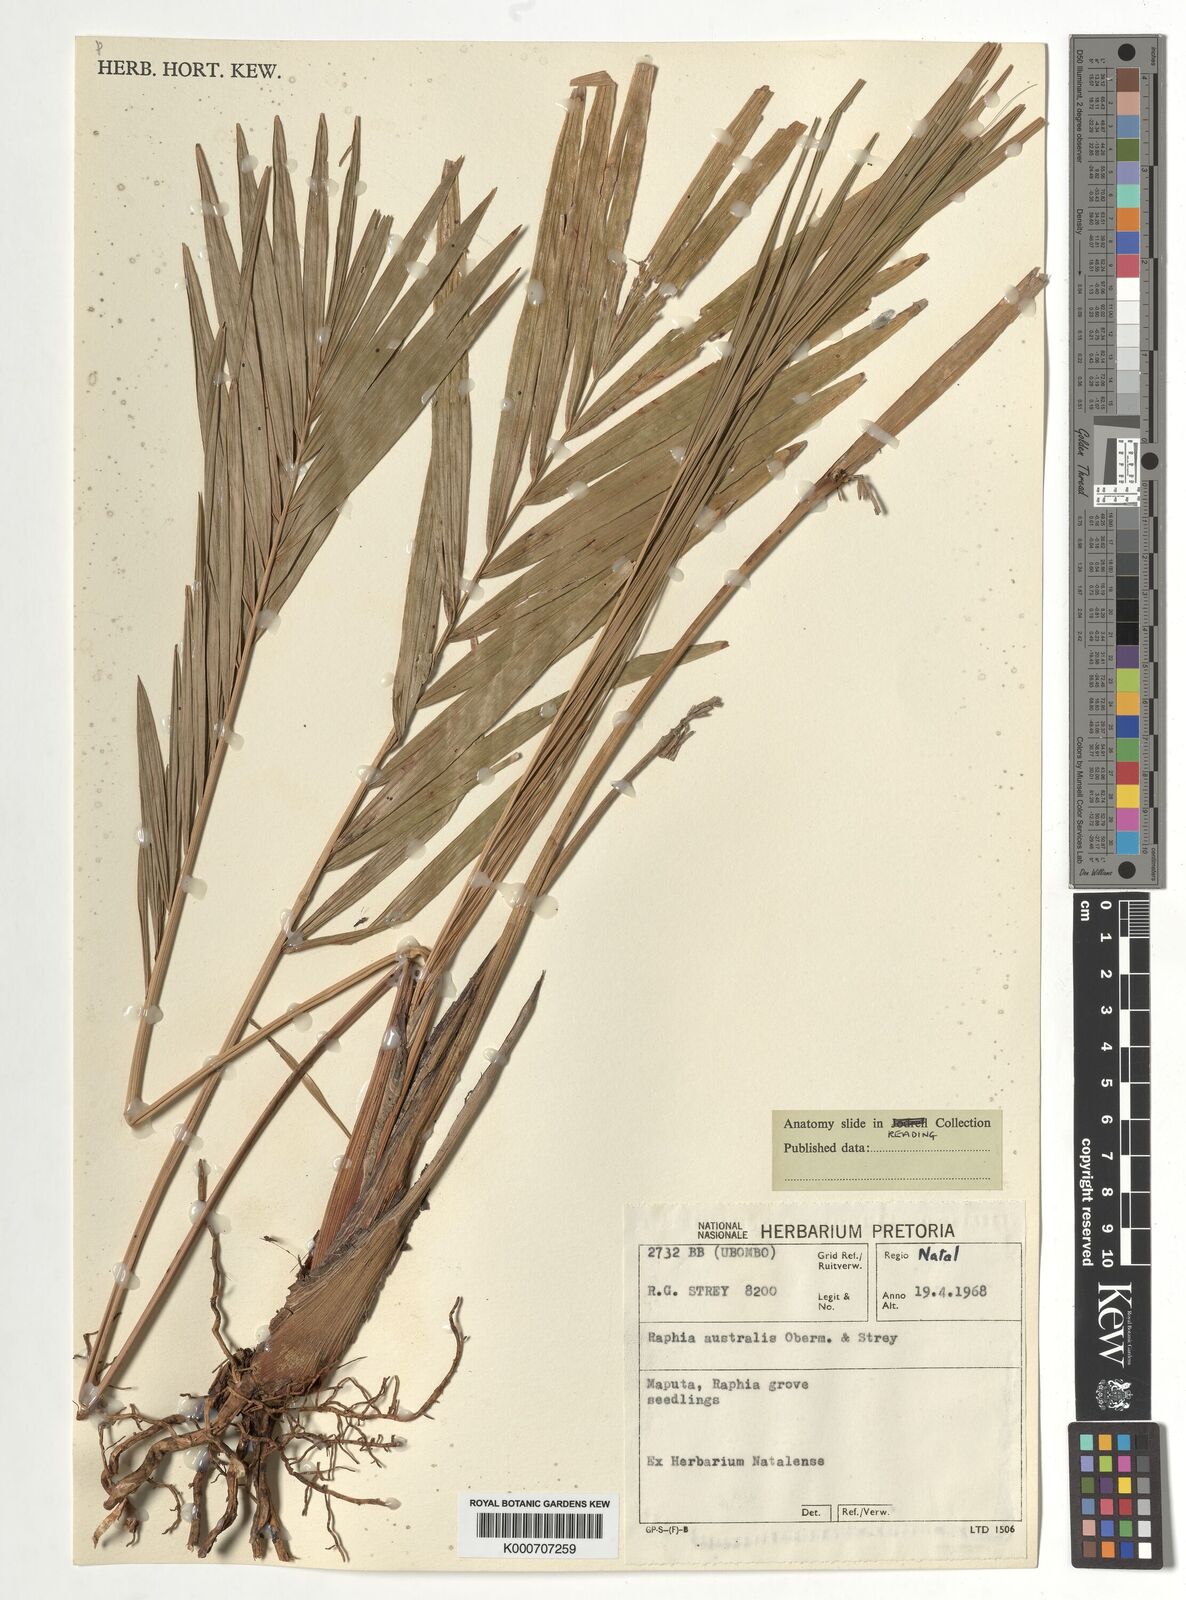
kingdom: Plantae
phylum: Tracheophyta
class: Liliopsida
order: Arecales
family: Arecaceae
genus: Raphia
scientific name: Raphia australis
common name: Giant palm
